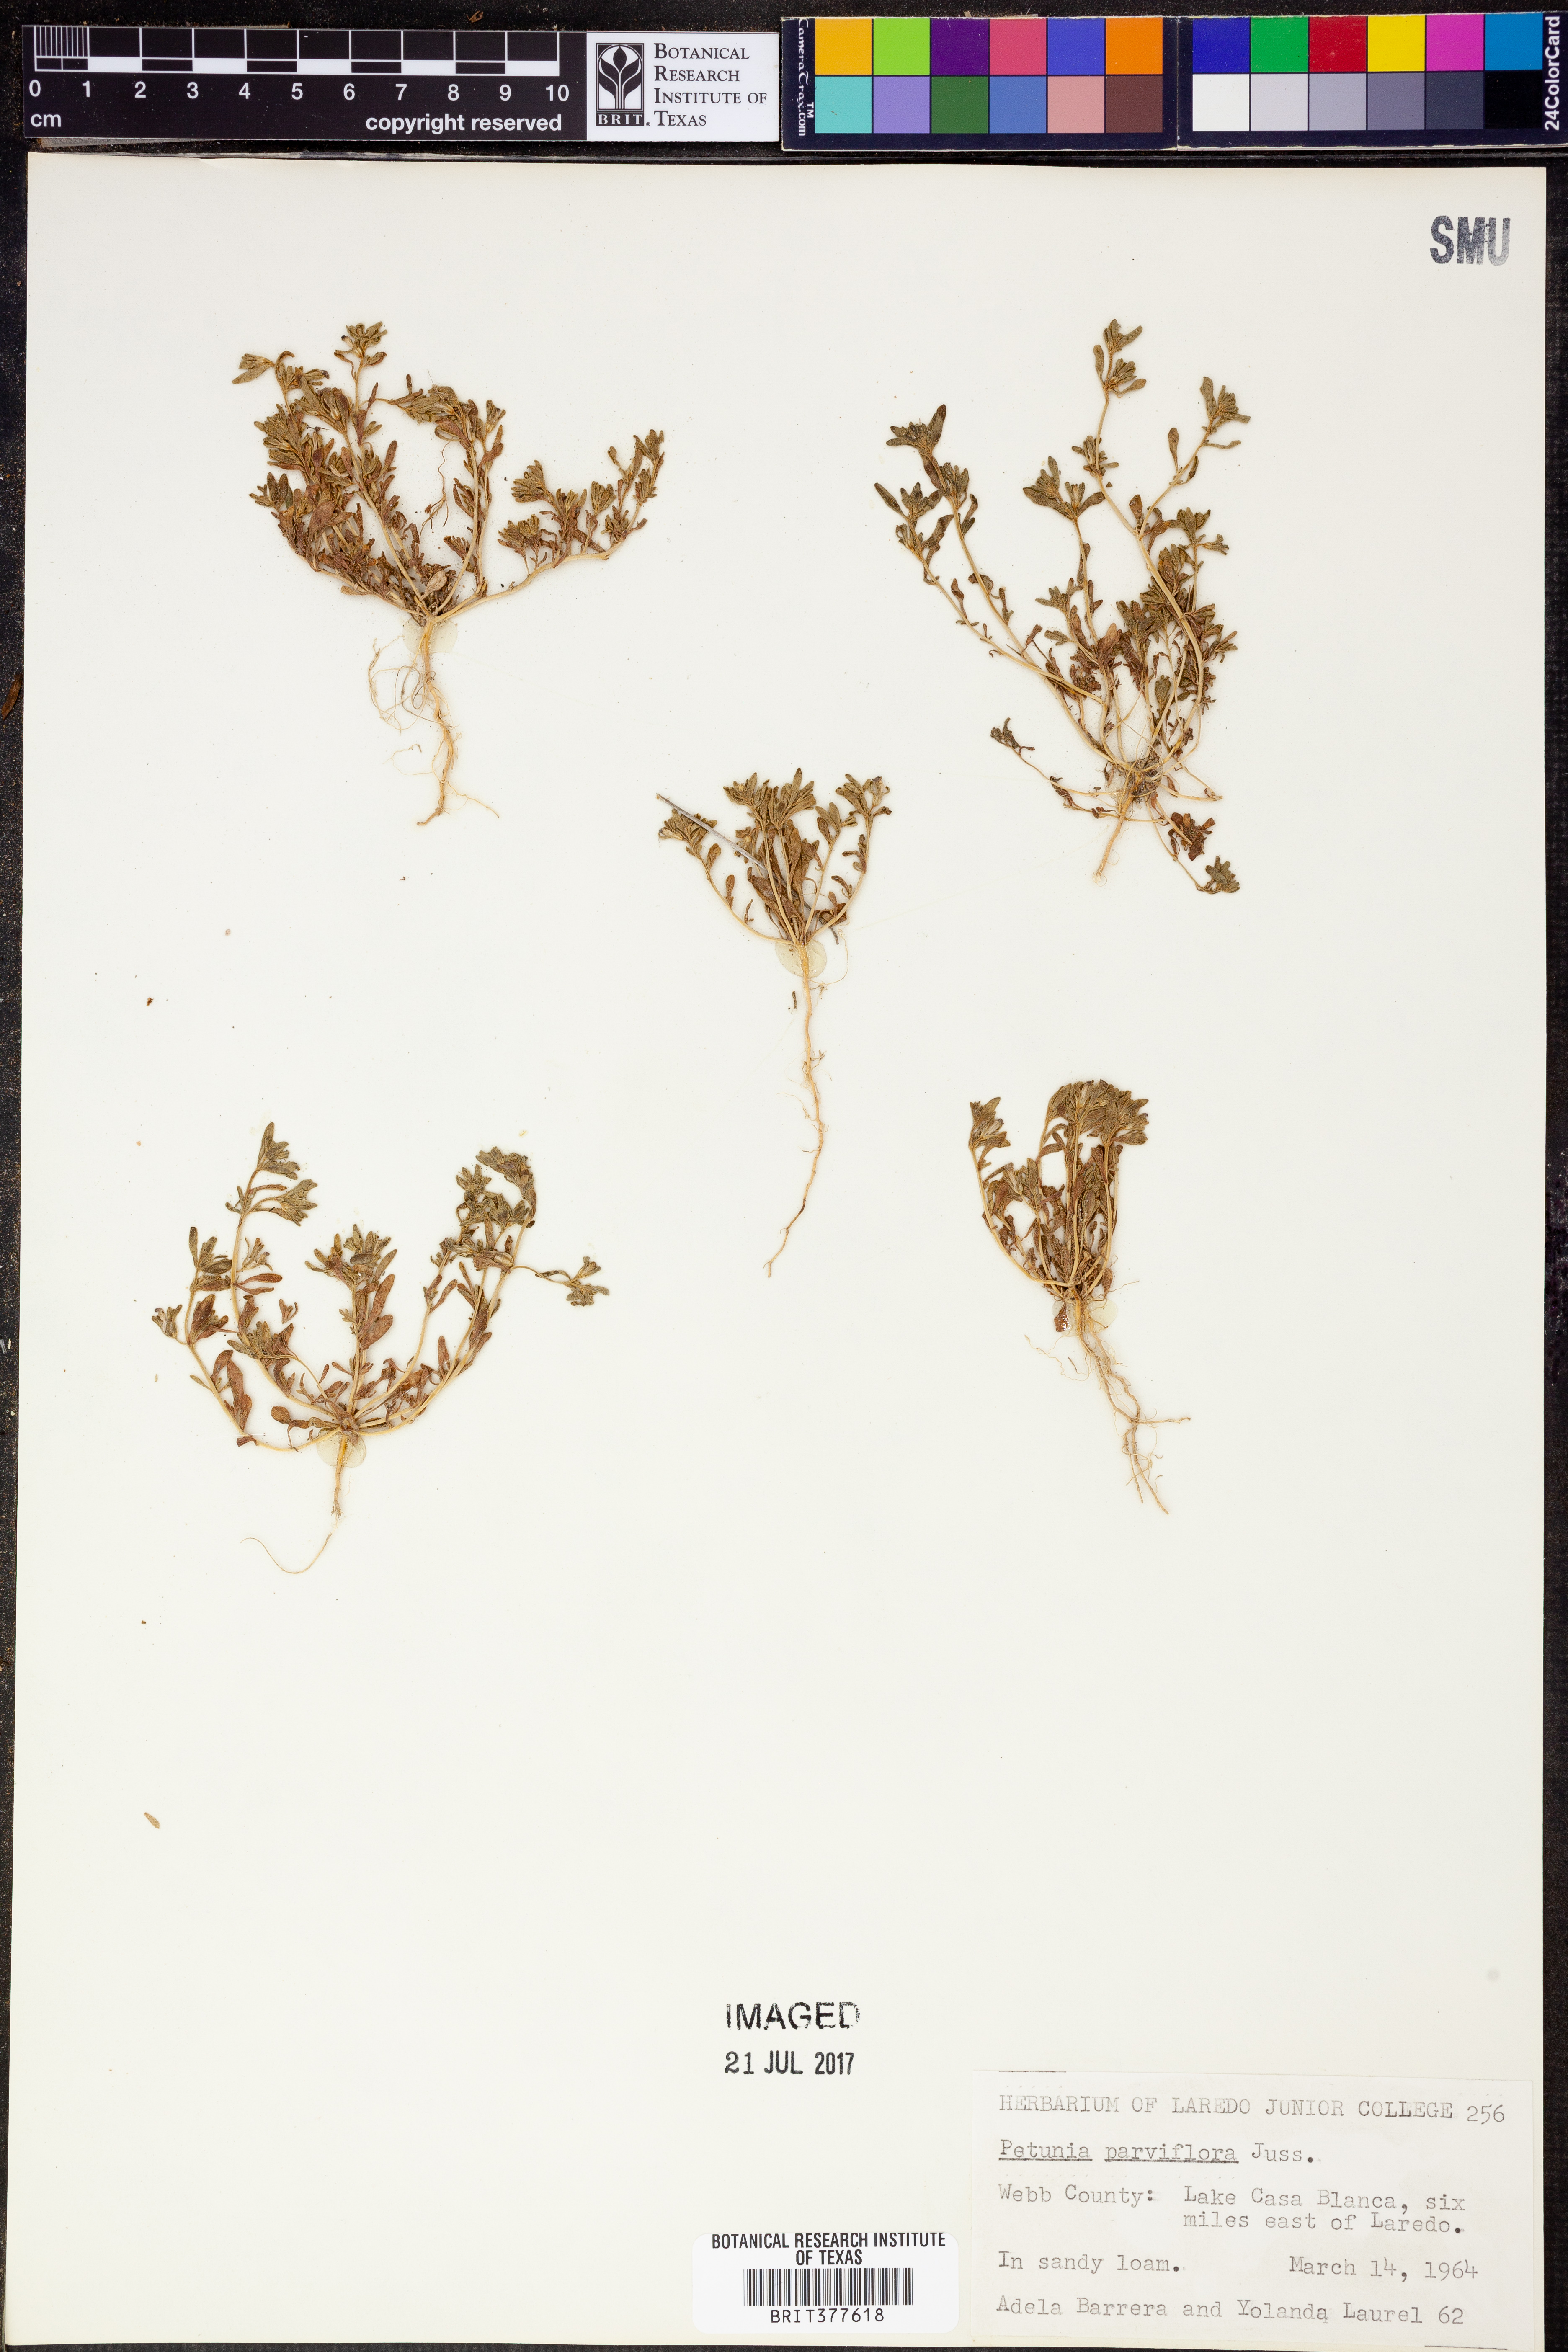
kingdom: Plantae
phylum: Tracheophyta
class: Magnoliopsida
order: Solanales
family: Solanaceae
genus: Calibrachoa
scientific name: Calibrachoa parviflora
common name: Seaside petunia
